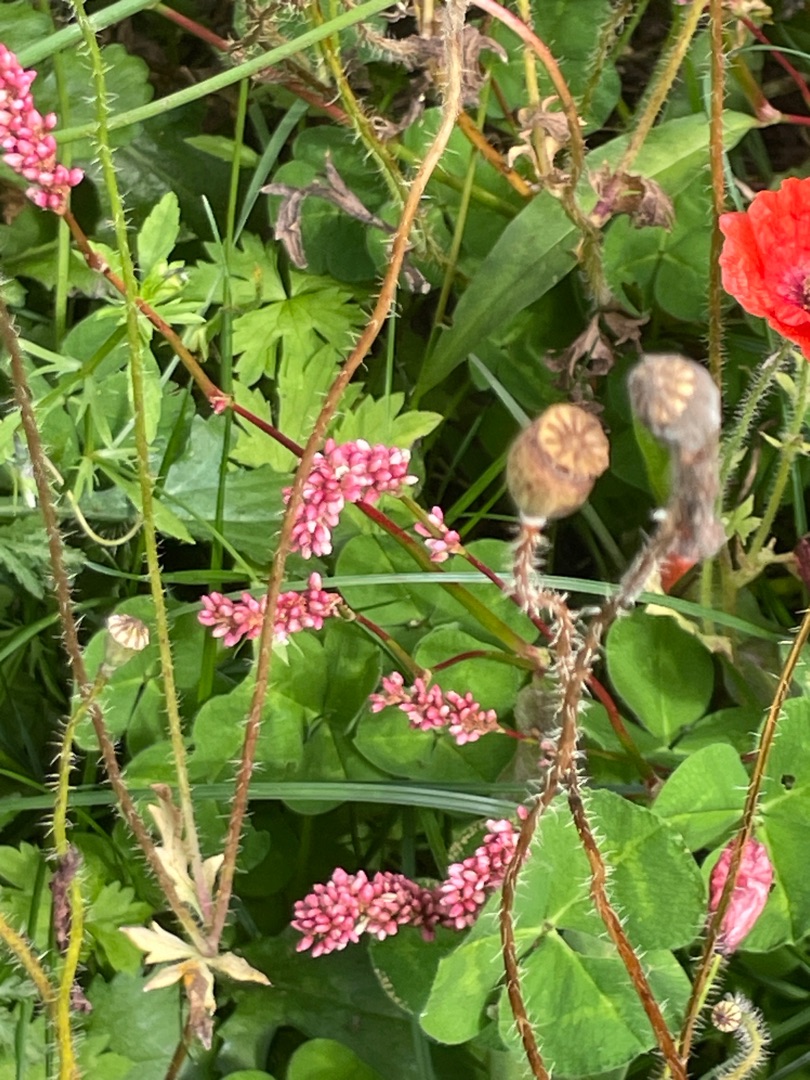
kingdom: Plantae
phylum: Tracheophyta
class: Magnoliopsida
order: Caryophyllales
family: Polygonaceae
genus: Persicaria
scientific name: Persicaria maculosa
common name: Fersken-pileurt
